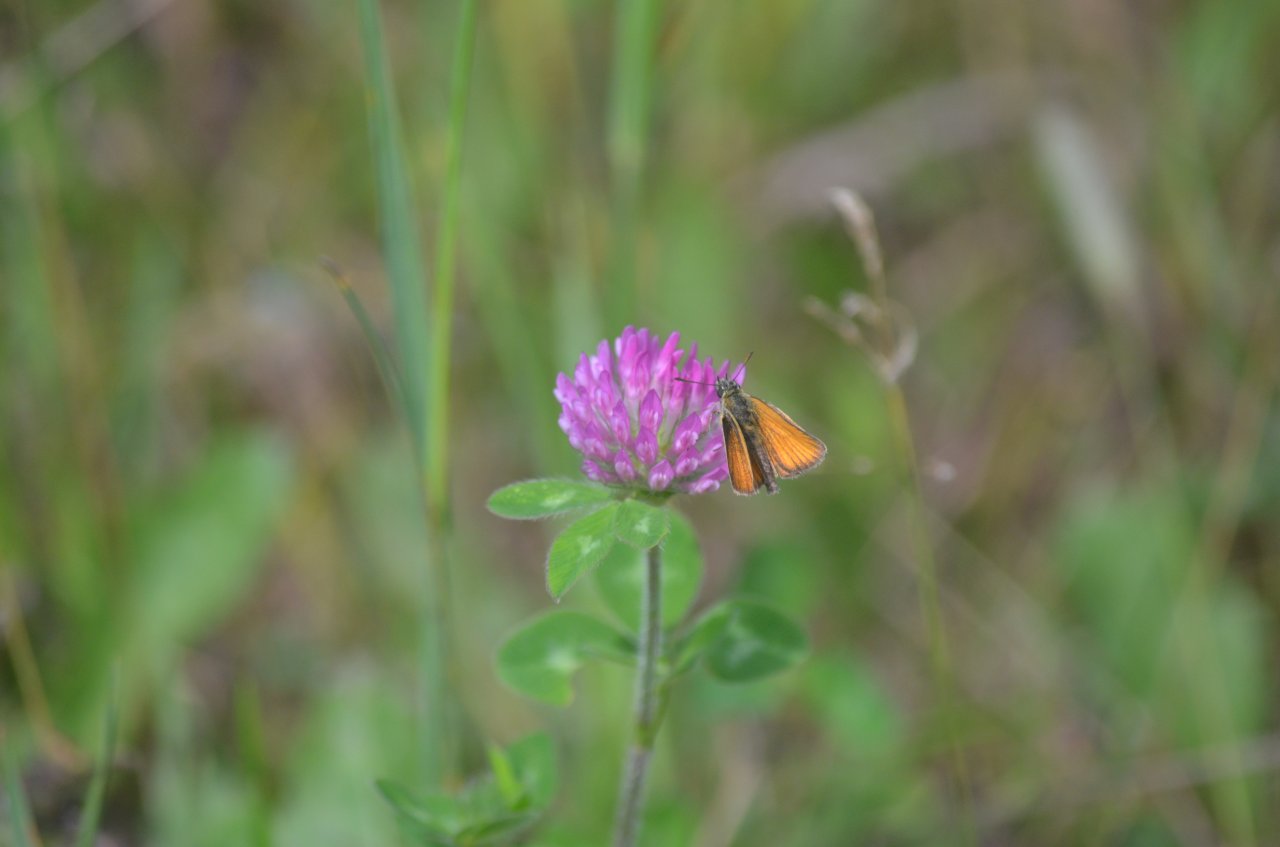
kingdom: Animalia
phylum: Arthropoda
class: Insecta
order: Lepidoptera
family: Hesperiidae
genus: Thymelicus
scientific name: Thymelicus lineola
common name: European Skipper
